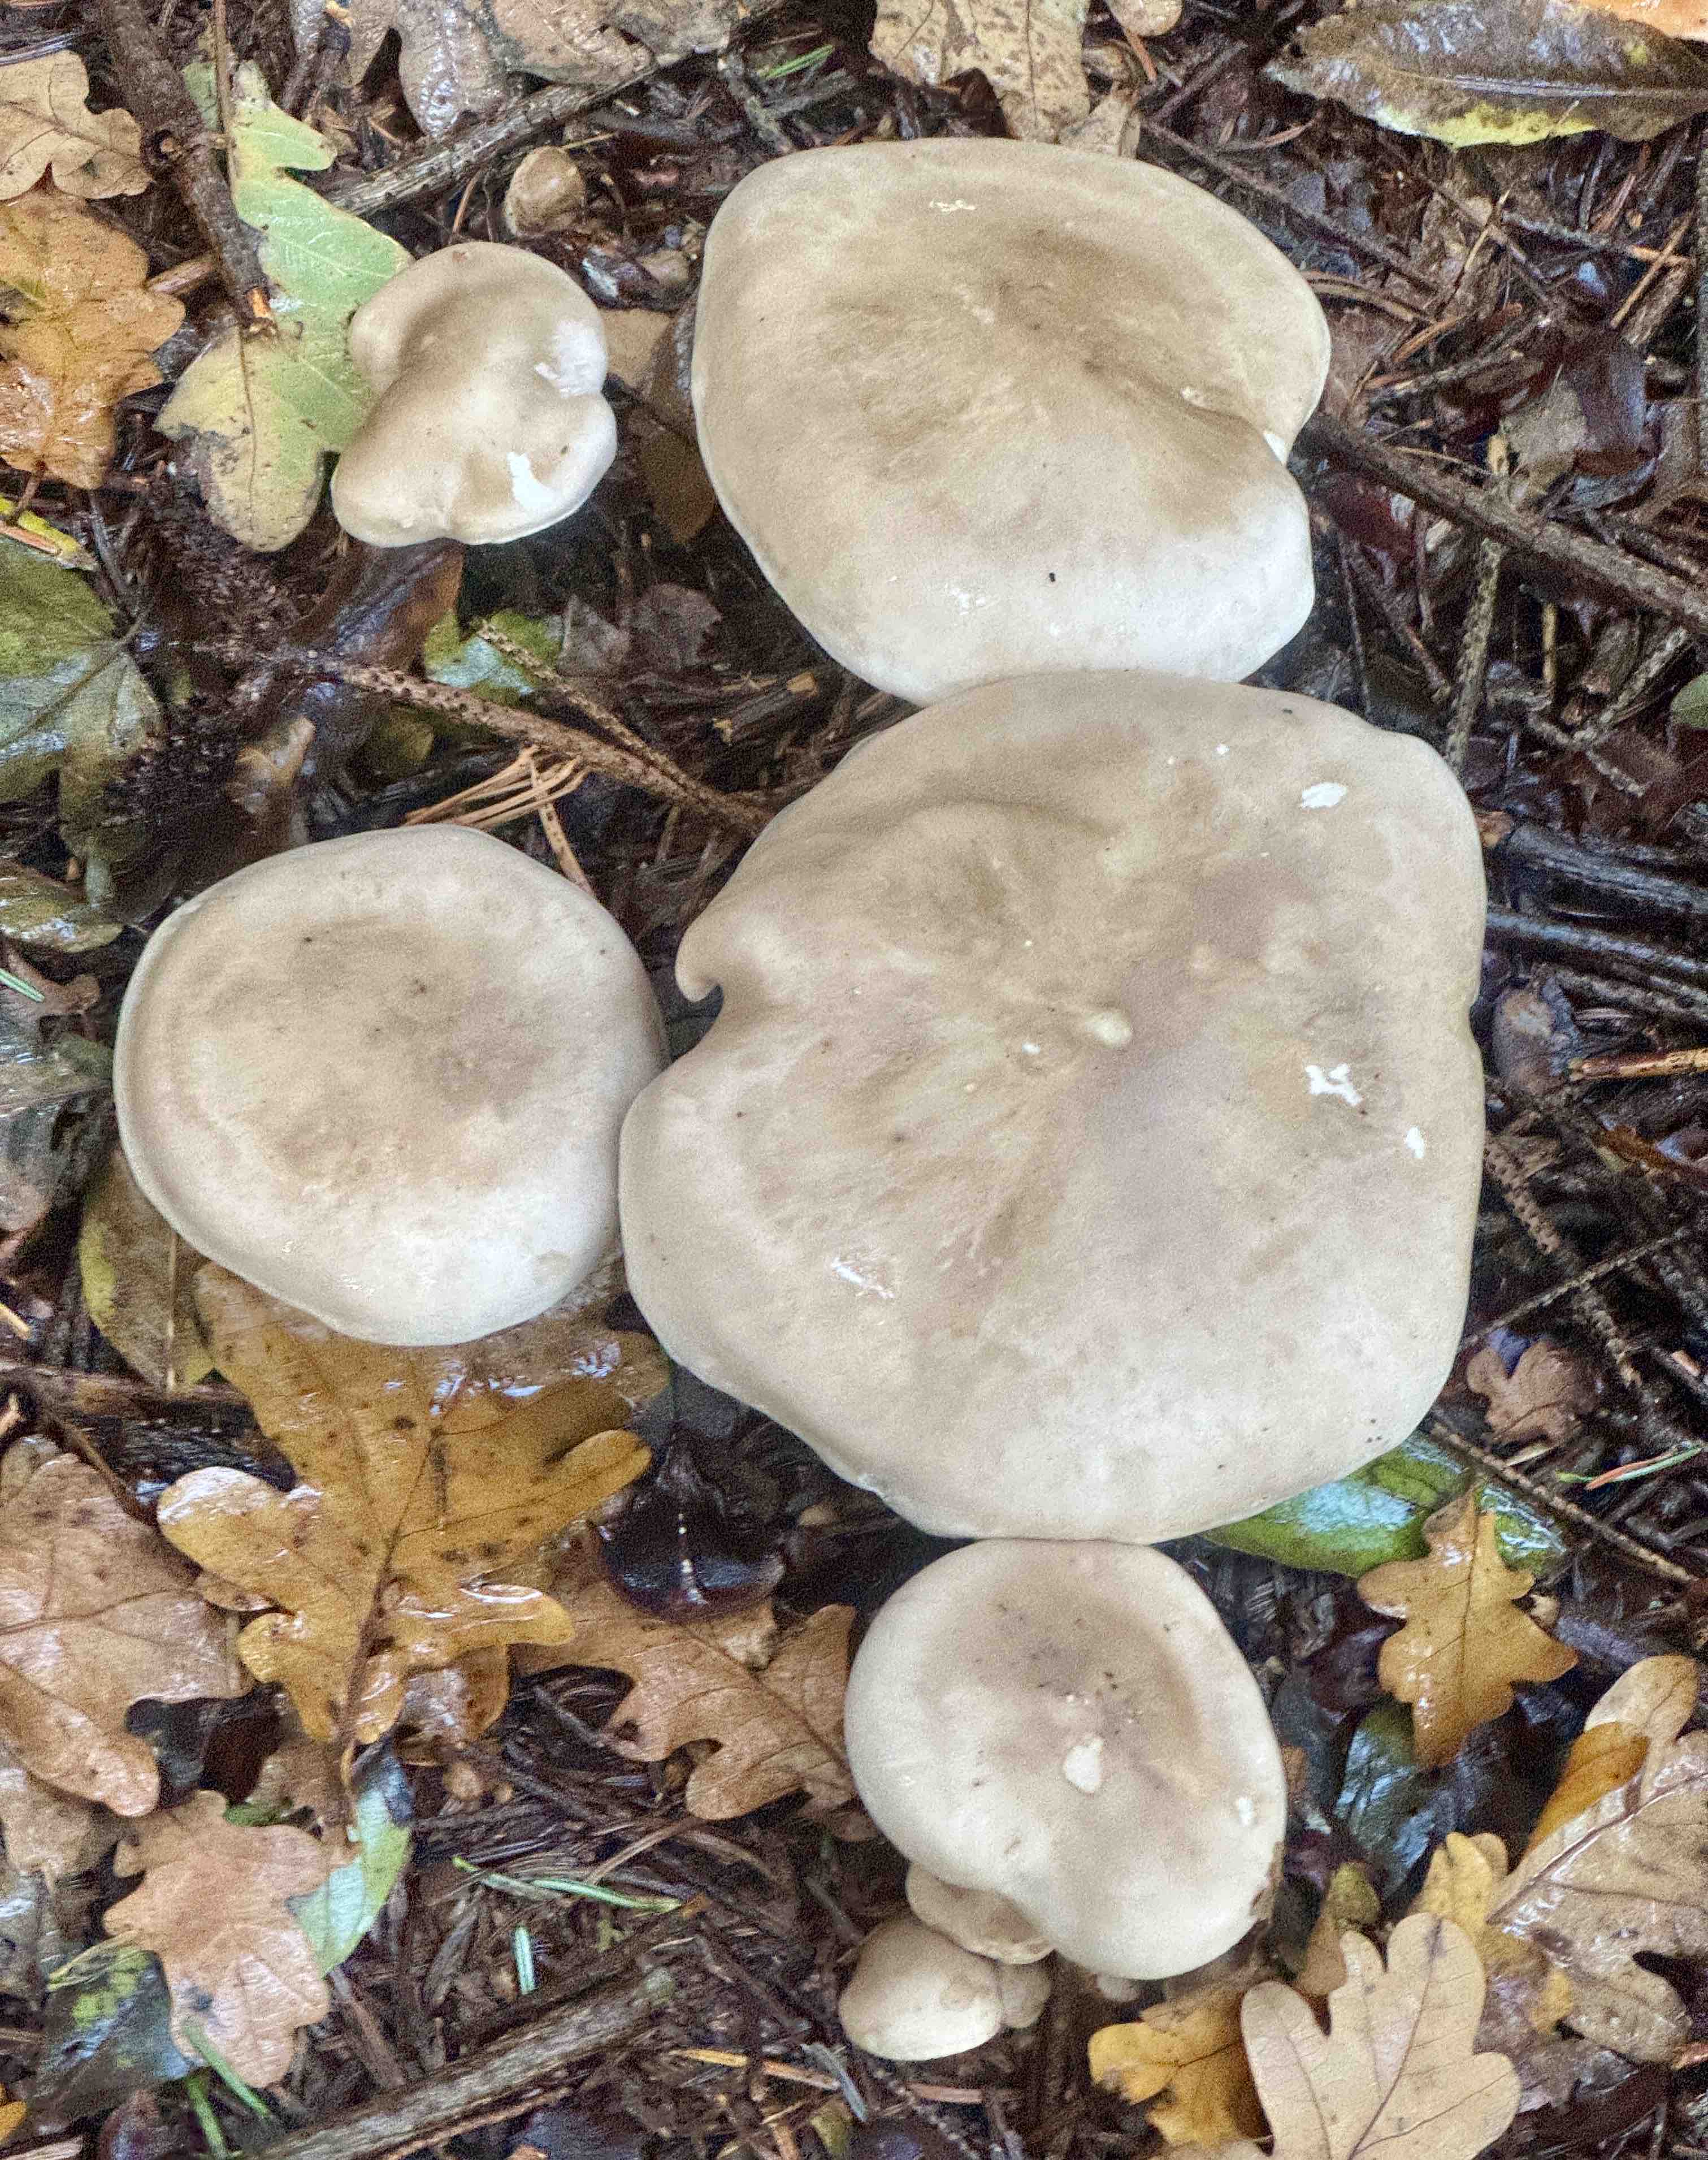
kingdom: Fungi
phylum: Basidiomycota
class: Agaricomycetes
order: Agaricales
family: Tricholomataceae
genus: Clitocybe
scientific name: Clitocybe nebularis
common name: tåge-tragthat
